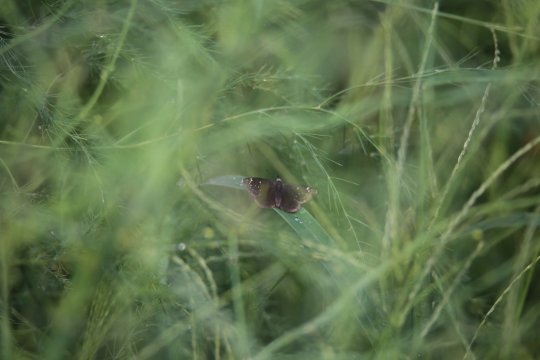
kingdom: Animalia
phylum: Arthropoda
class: Insecta
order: Lepidoptera
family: Hesperiidae
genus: Pholisora
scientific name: Pholisora catullus
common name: Common Sootywing
